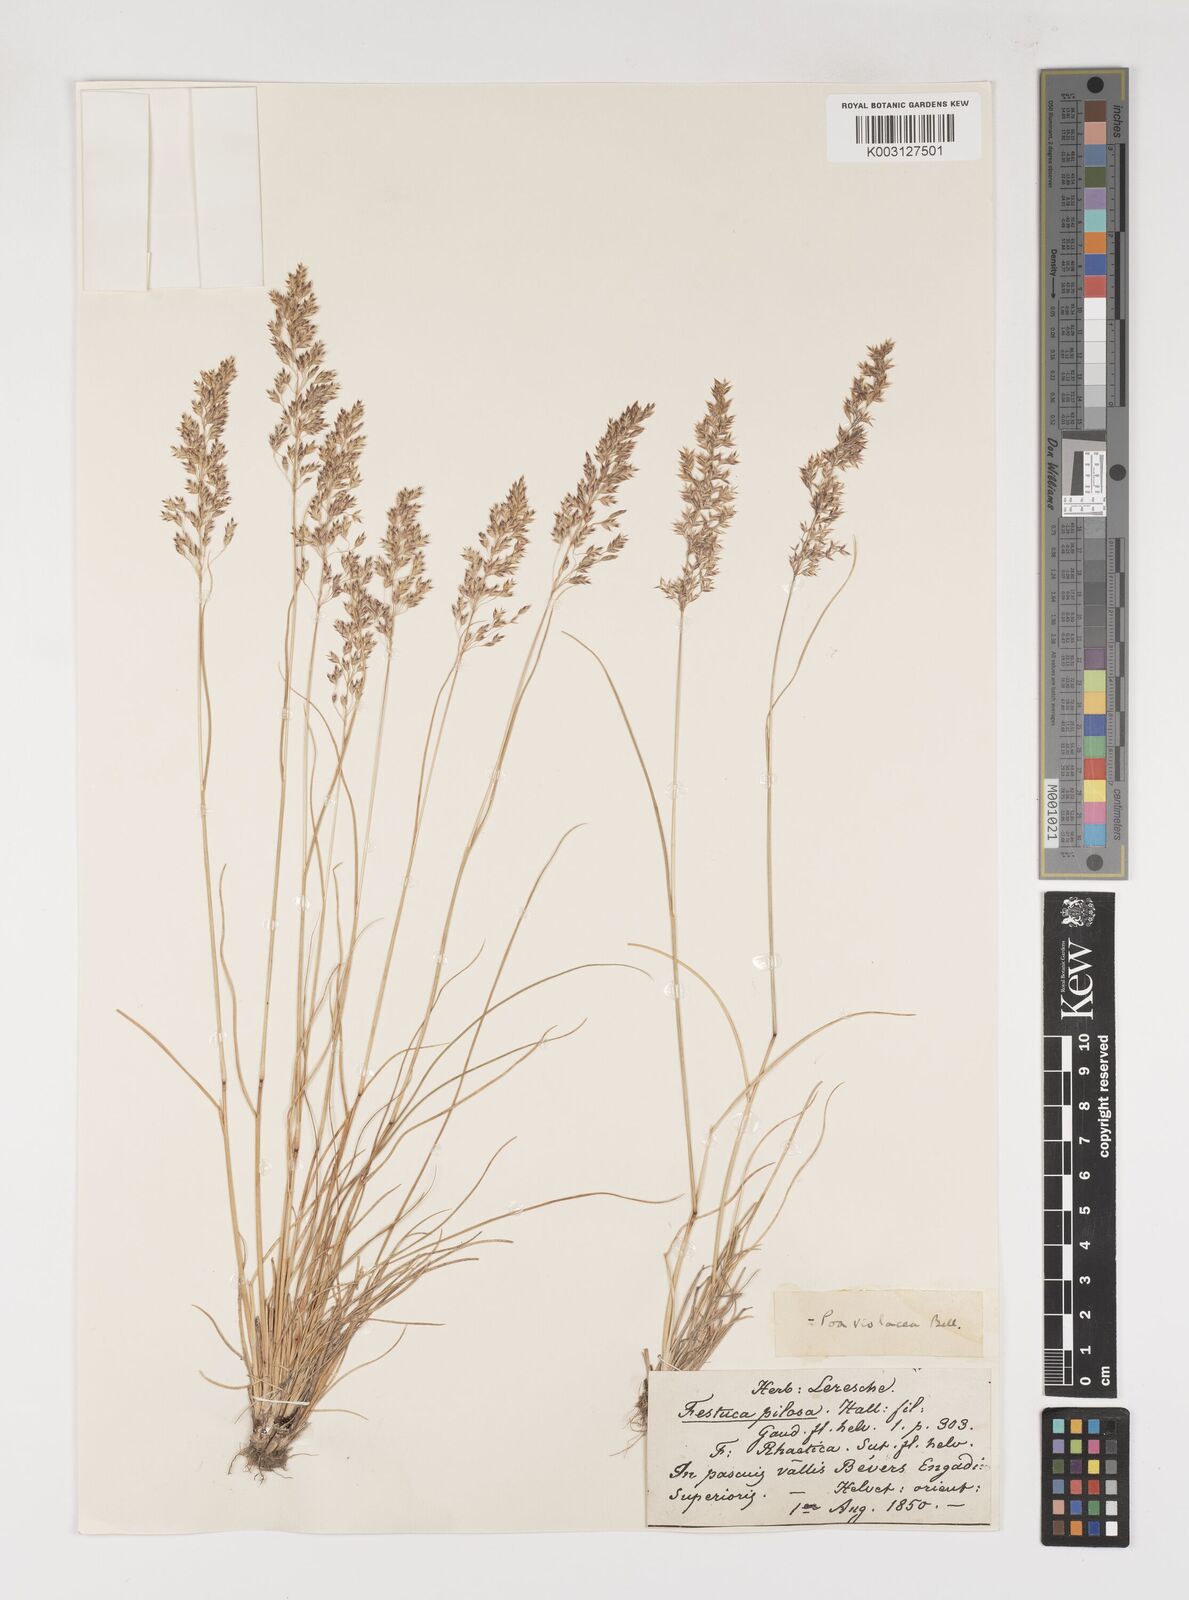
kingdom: Plantae
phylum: Tracheophyta
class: Liliopsida
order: Poales
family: Poaceae
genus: Bellardiochloa
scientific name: Bellardiochloa variegata
